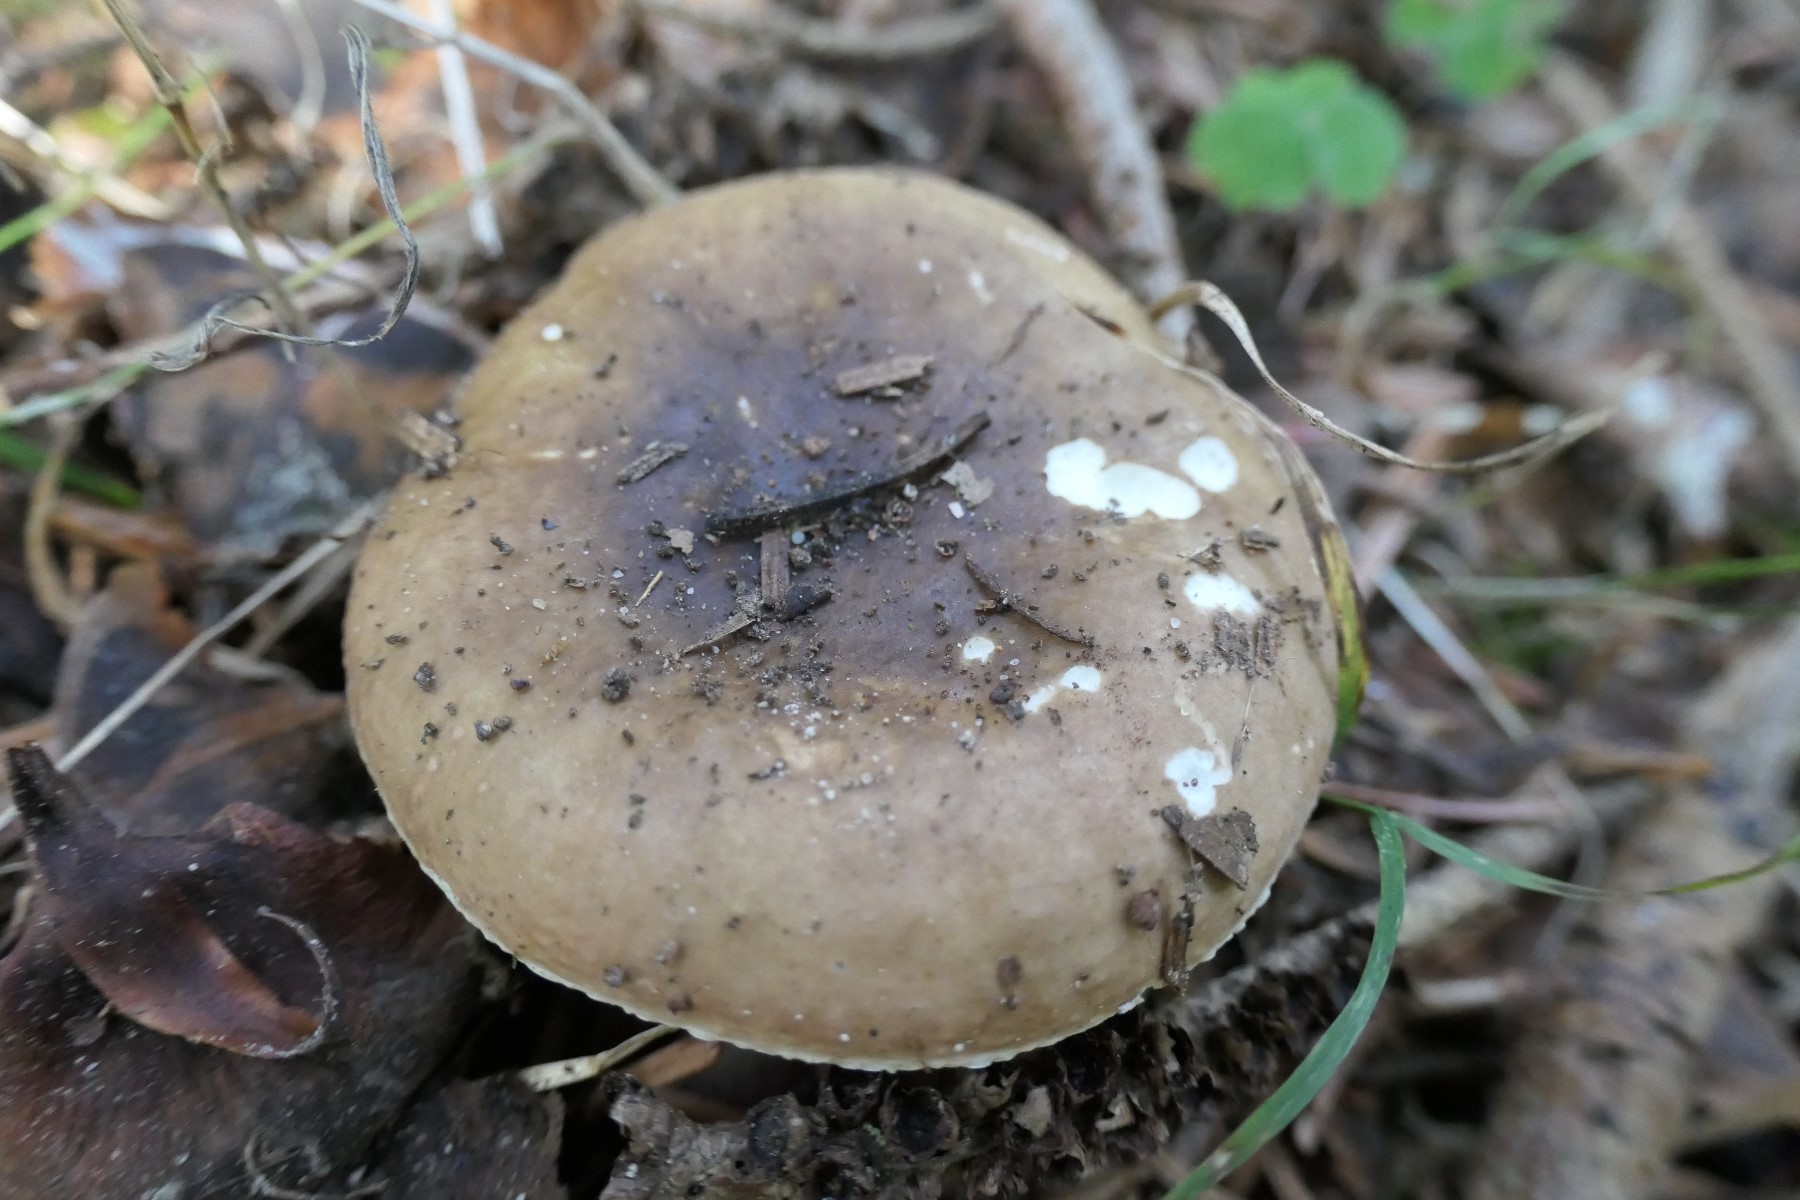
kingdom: Fungi
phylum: Basidiomycota
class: Agaricomycetes
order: Russulales
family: Russulaceae
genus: Russula
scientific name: Russula integra
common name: mandel-skørhat
